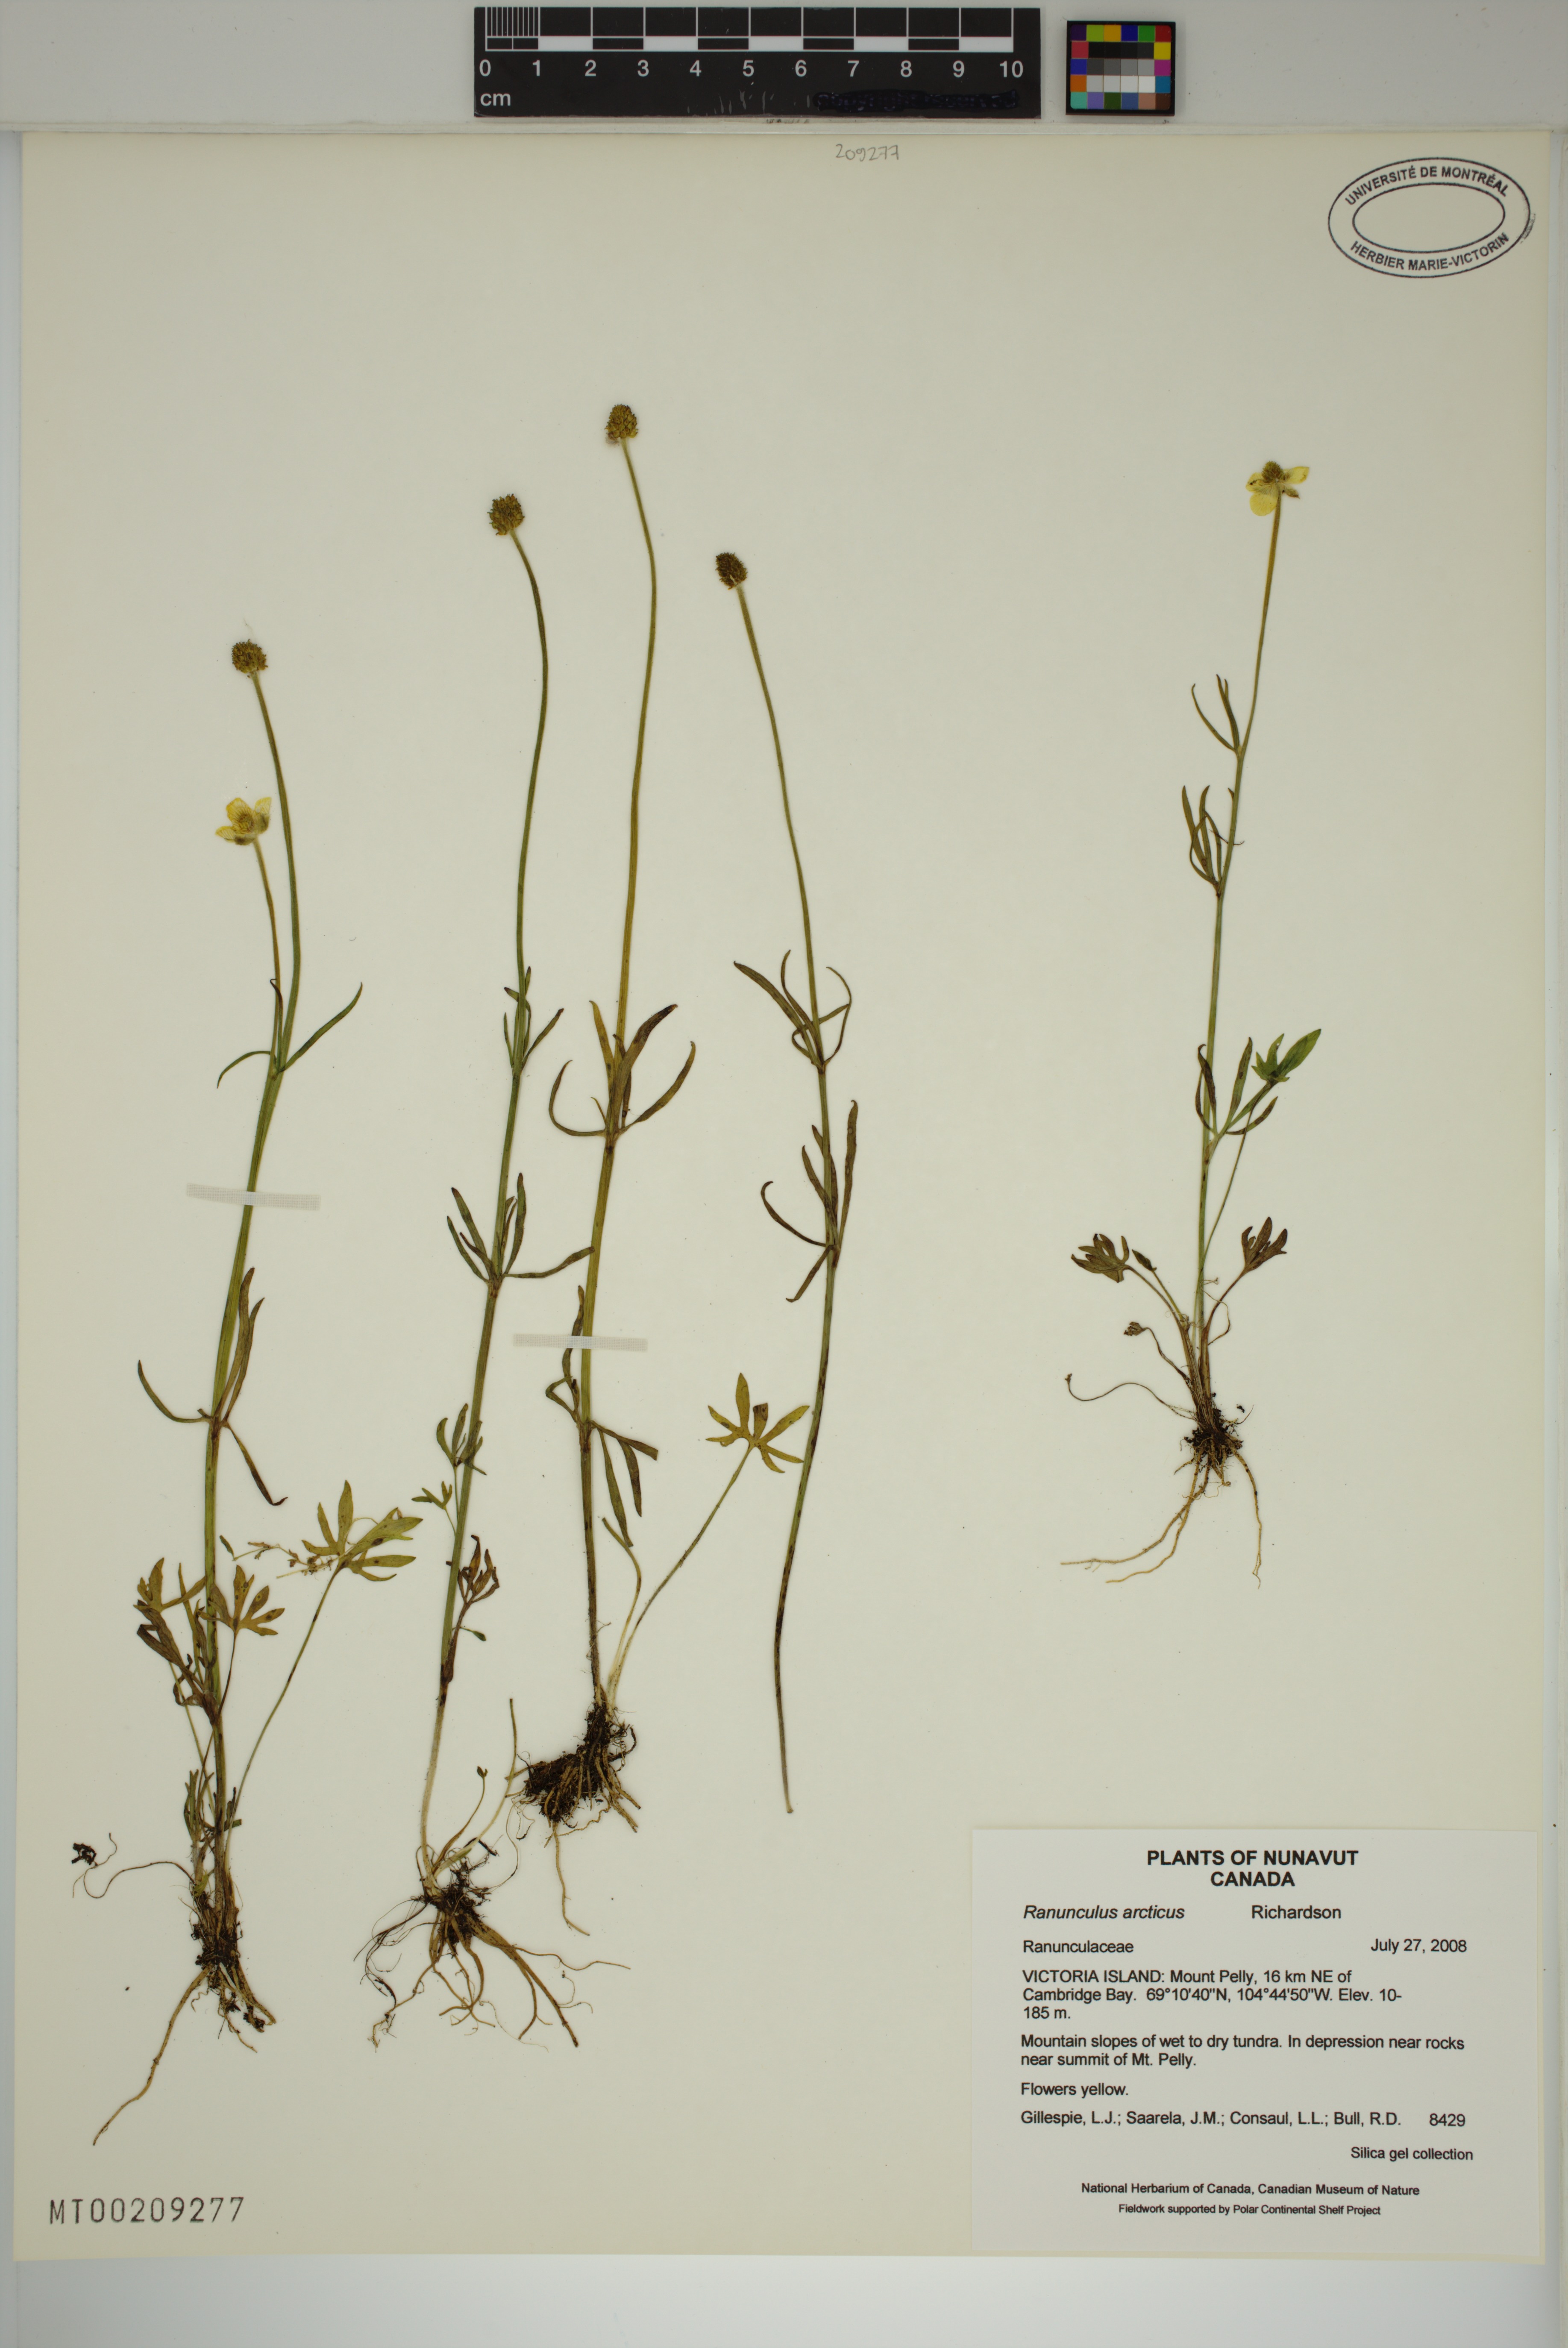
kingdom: Plantae
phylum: Tracheophyta
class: Magnoliopsida
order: Ranunculales
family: Ranunculaceae
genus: Ranunculus
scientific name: Ranunculus arcticus
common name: Bird's-foot buttercup
